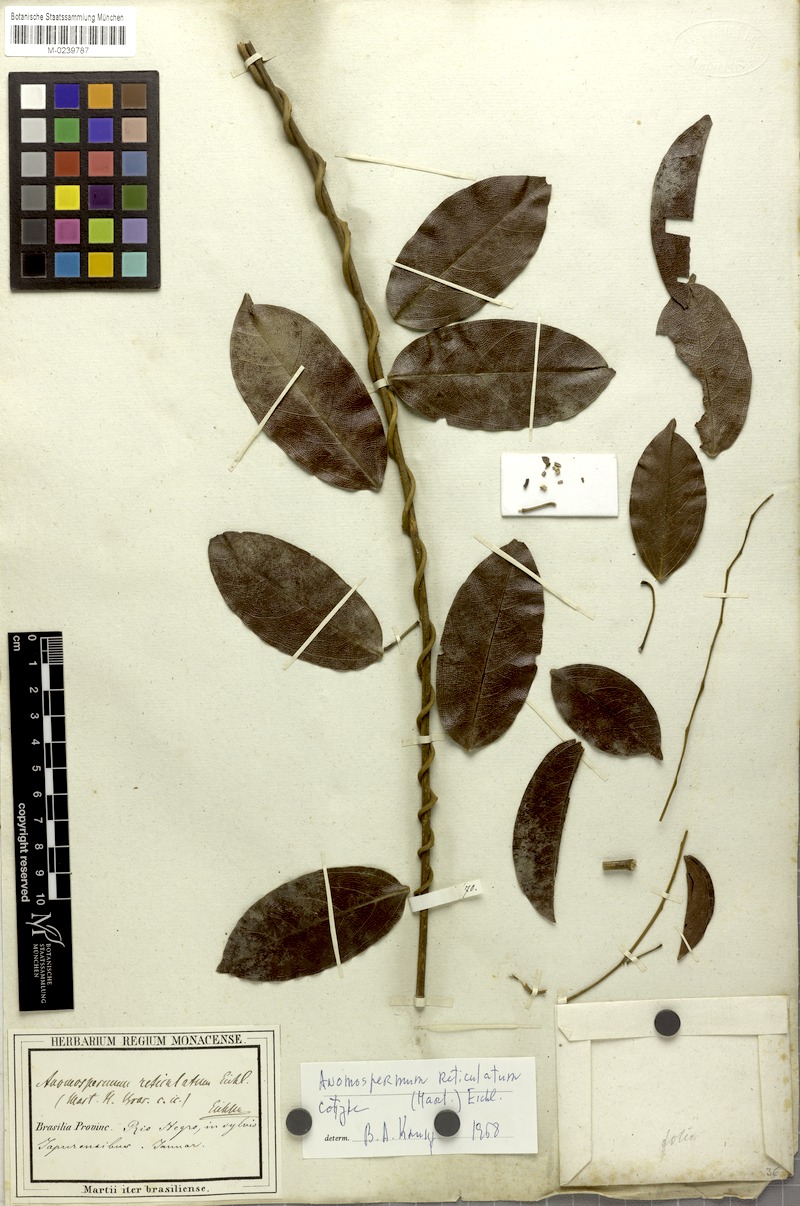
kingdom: Plantae
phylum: Tracheophyta
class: Magnoliopsida
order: Ranunculales
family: Menispermaceae
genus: Anomospermum
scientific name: Anomospermum reticulatum
